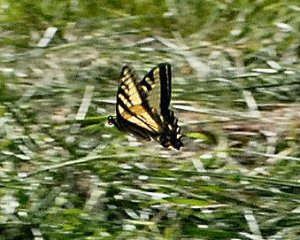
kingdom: Animalia
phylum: Arthropoda
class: Insecta
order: Lepidoptera
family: Papilionidae
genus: Pterourus
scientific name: Pterourus rutulus
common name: Western Tiger Swallowtail
